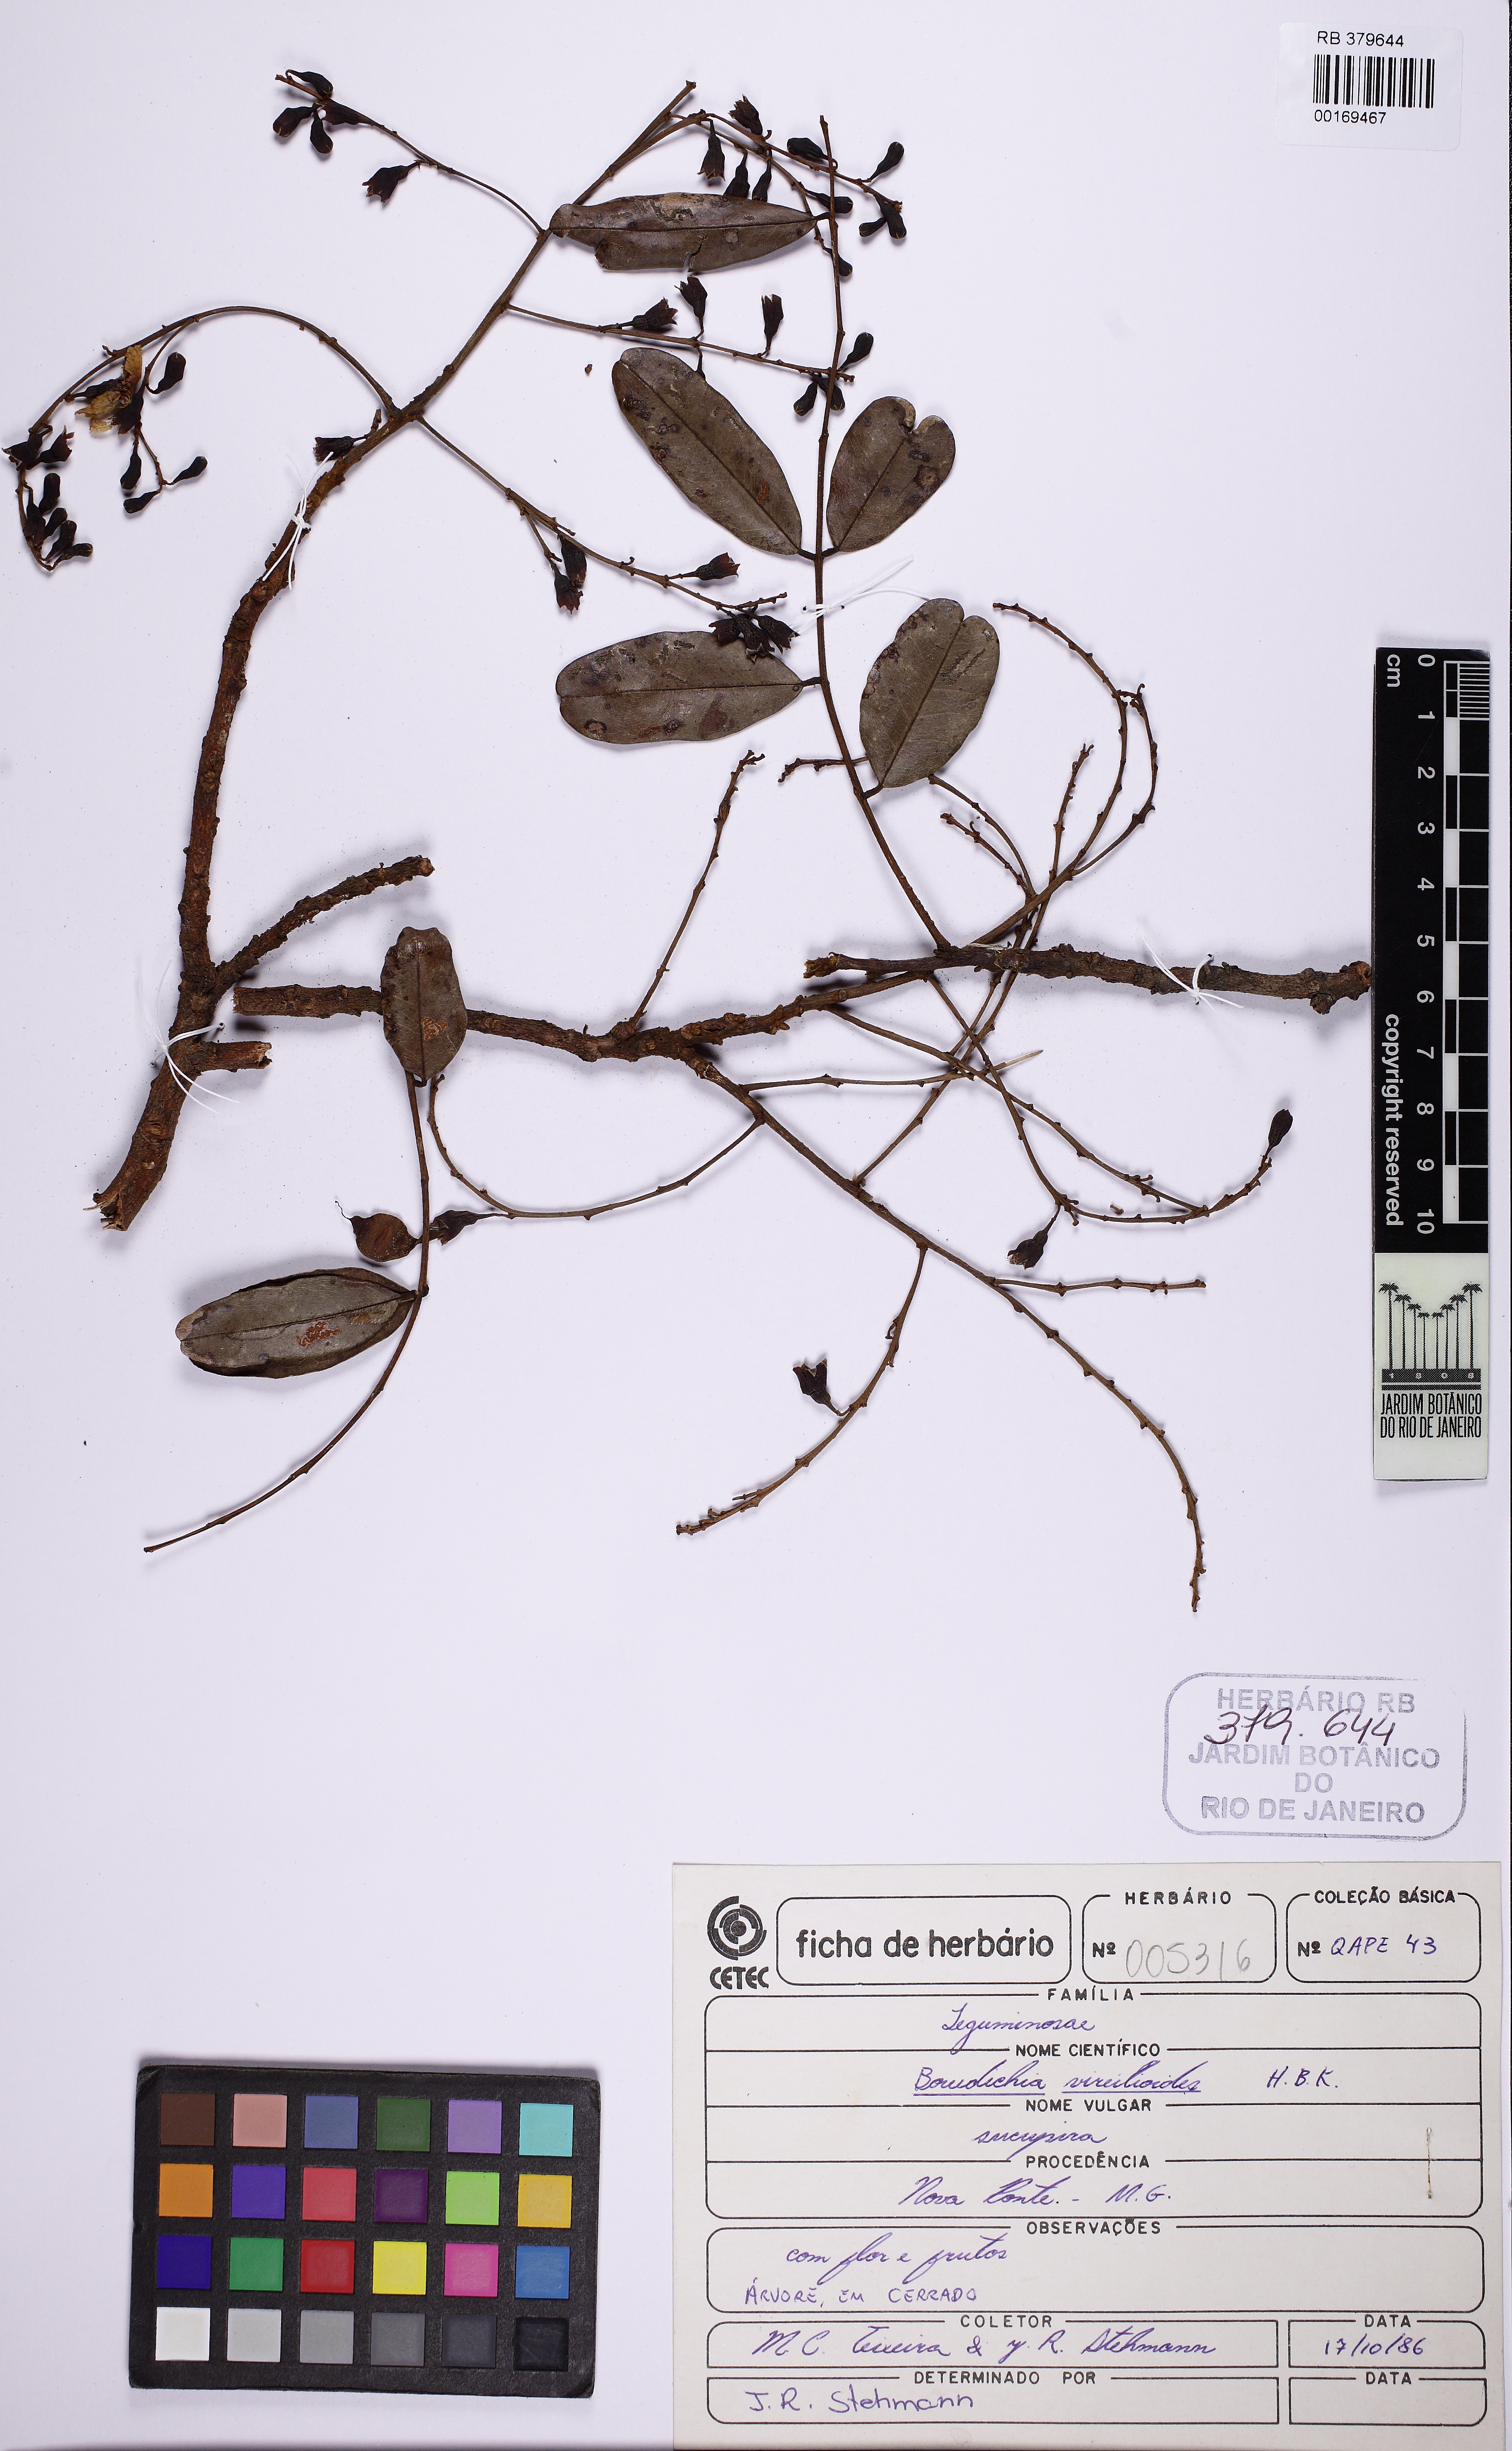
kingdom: Plantae
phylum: Tracheophyta
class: Magnoliopsida
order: Fabales
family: Fabaceae
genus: Bowdichia
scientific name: Bowdichia virgilioides
